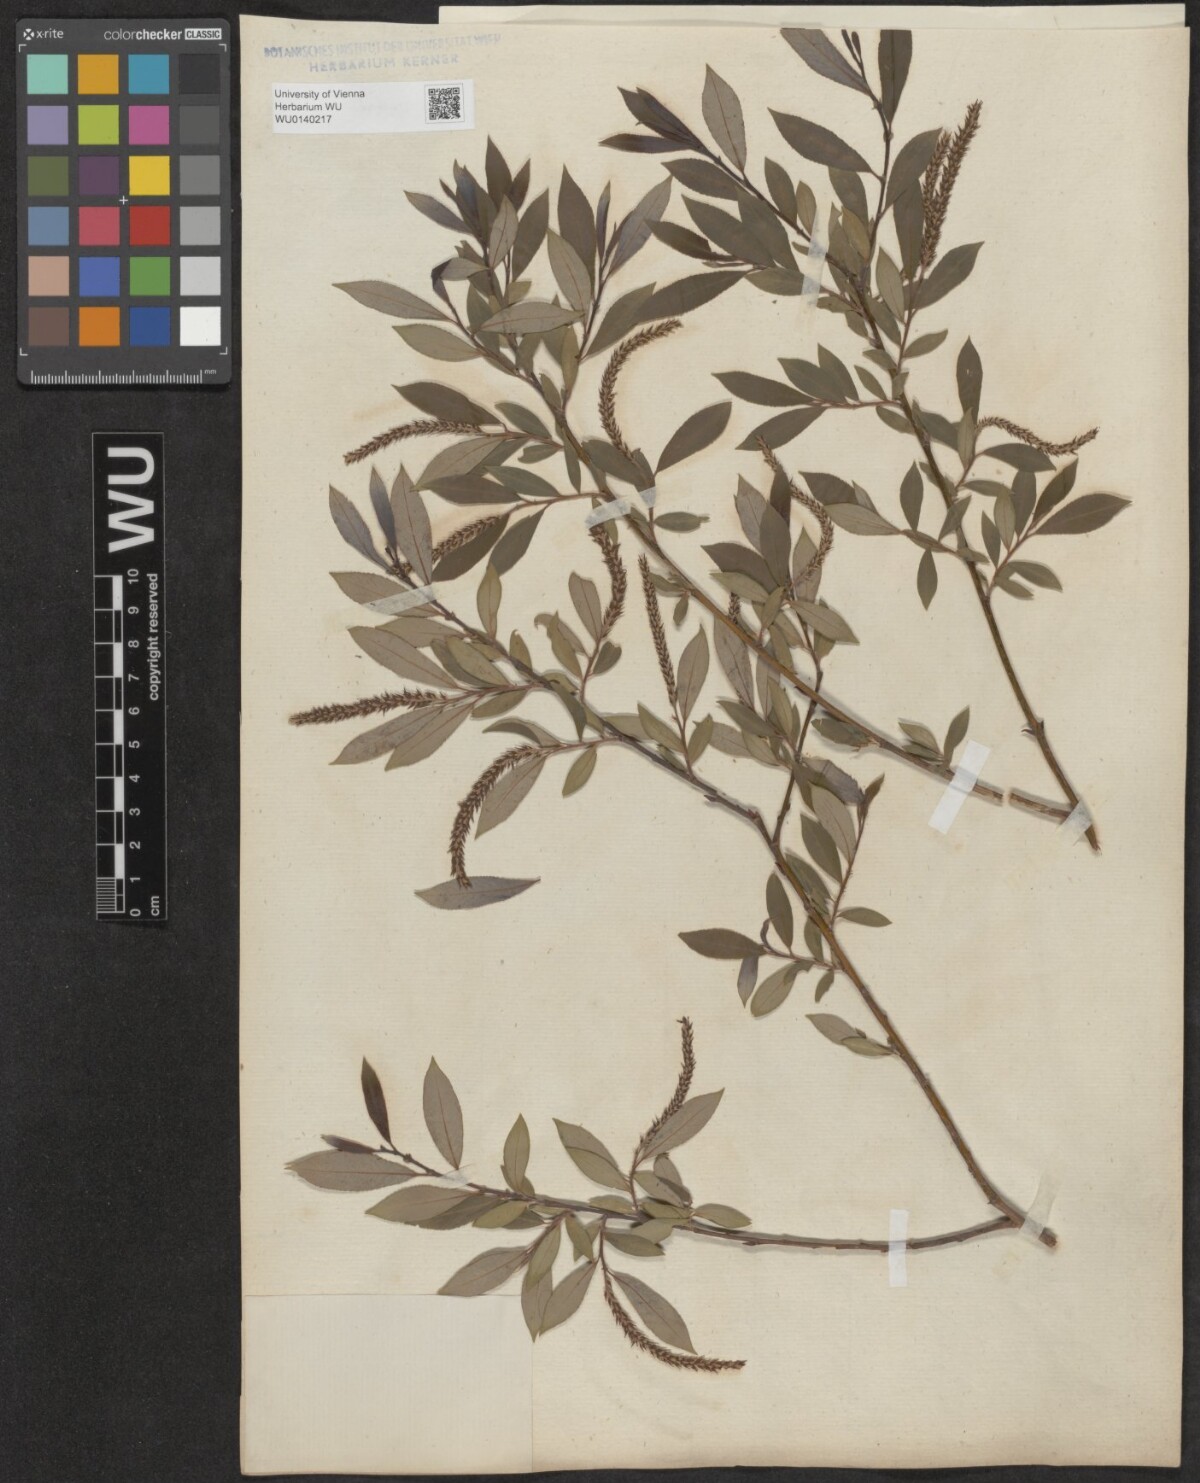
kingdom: Plantae
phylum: Tracheophyta
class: Magnoliopsida
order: Malpighiales
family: Salicaceae
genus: Salix
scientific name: Salix triandra
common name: Almond willow
